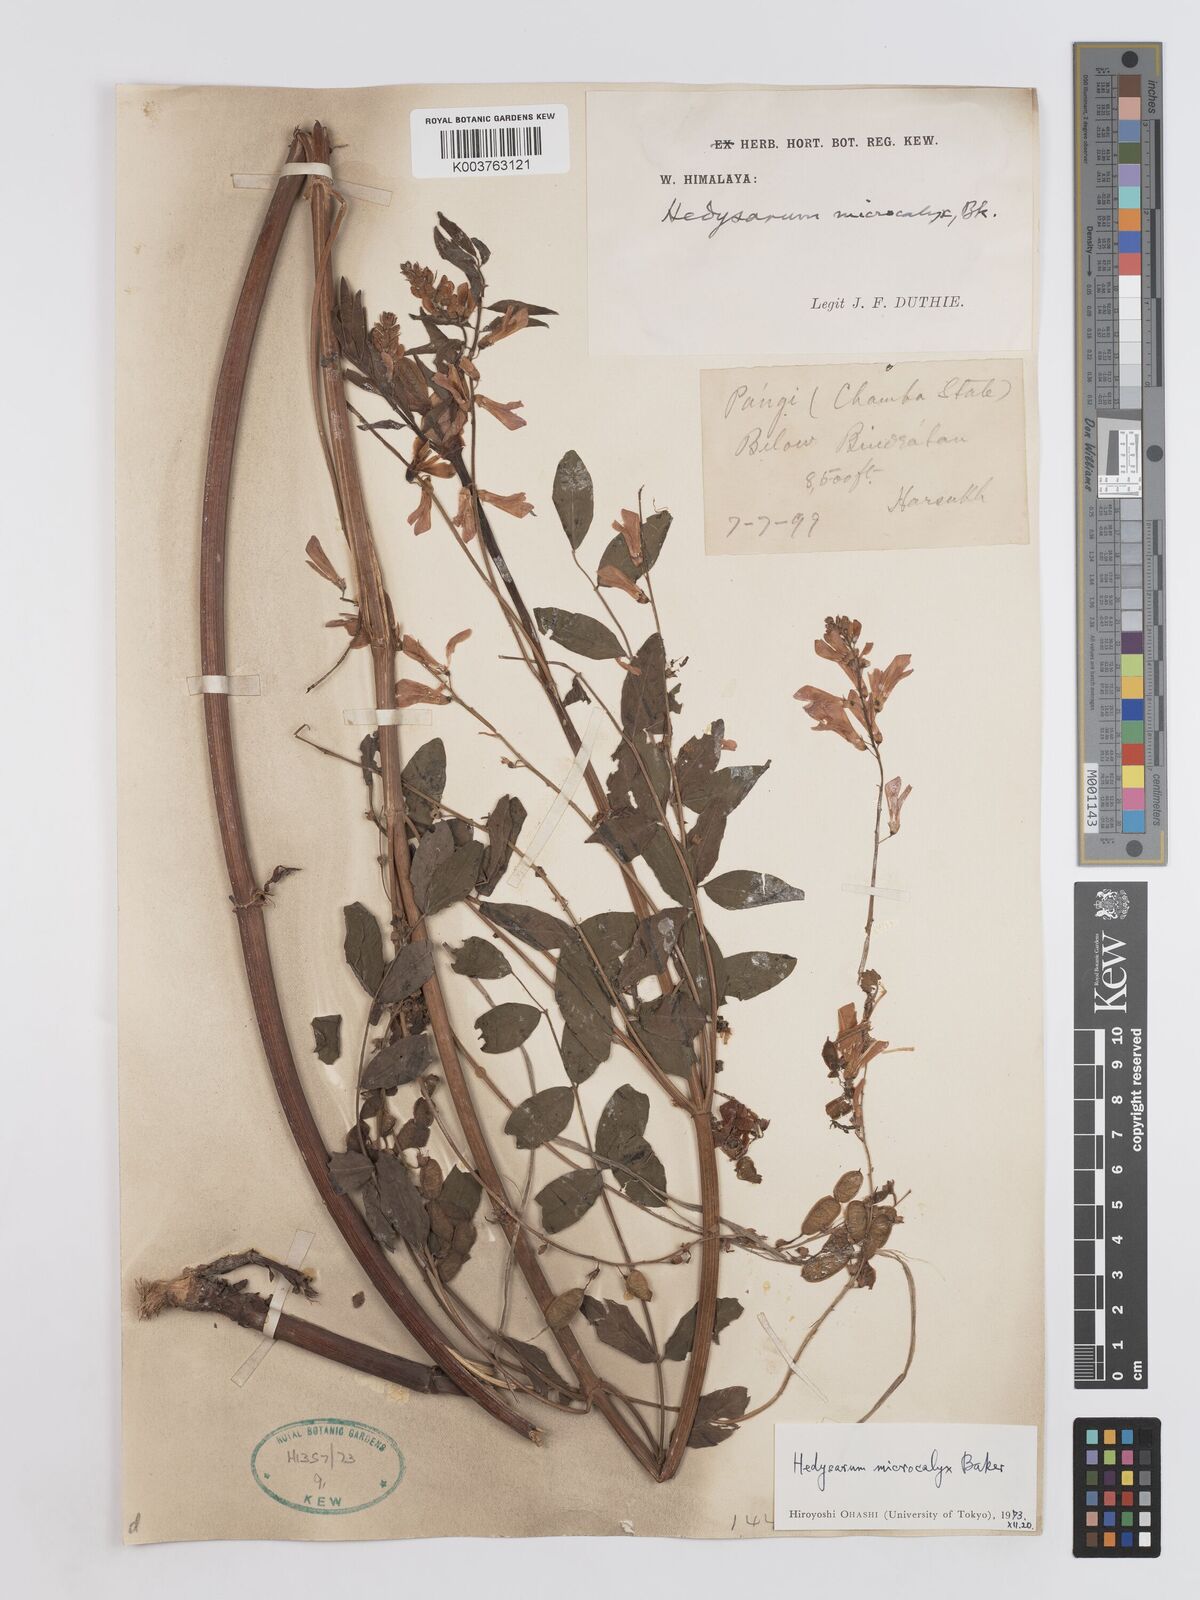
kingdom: Plantae
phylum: Tracheophyta
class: Magnoliopsida
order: Fabales
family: Fabaceae
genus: Hedysarum
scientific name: Hedysarum microcalyx
